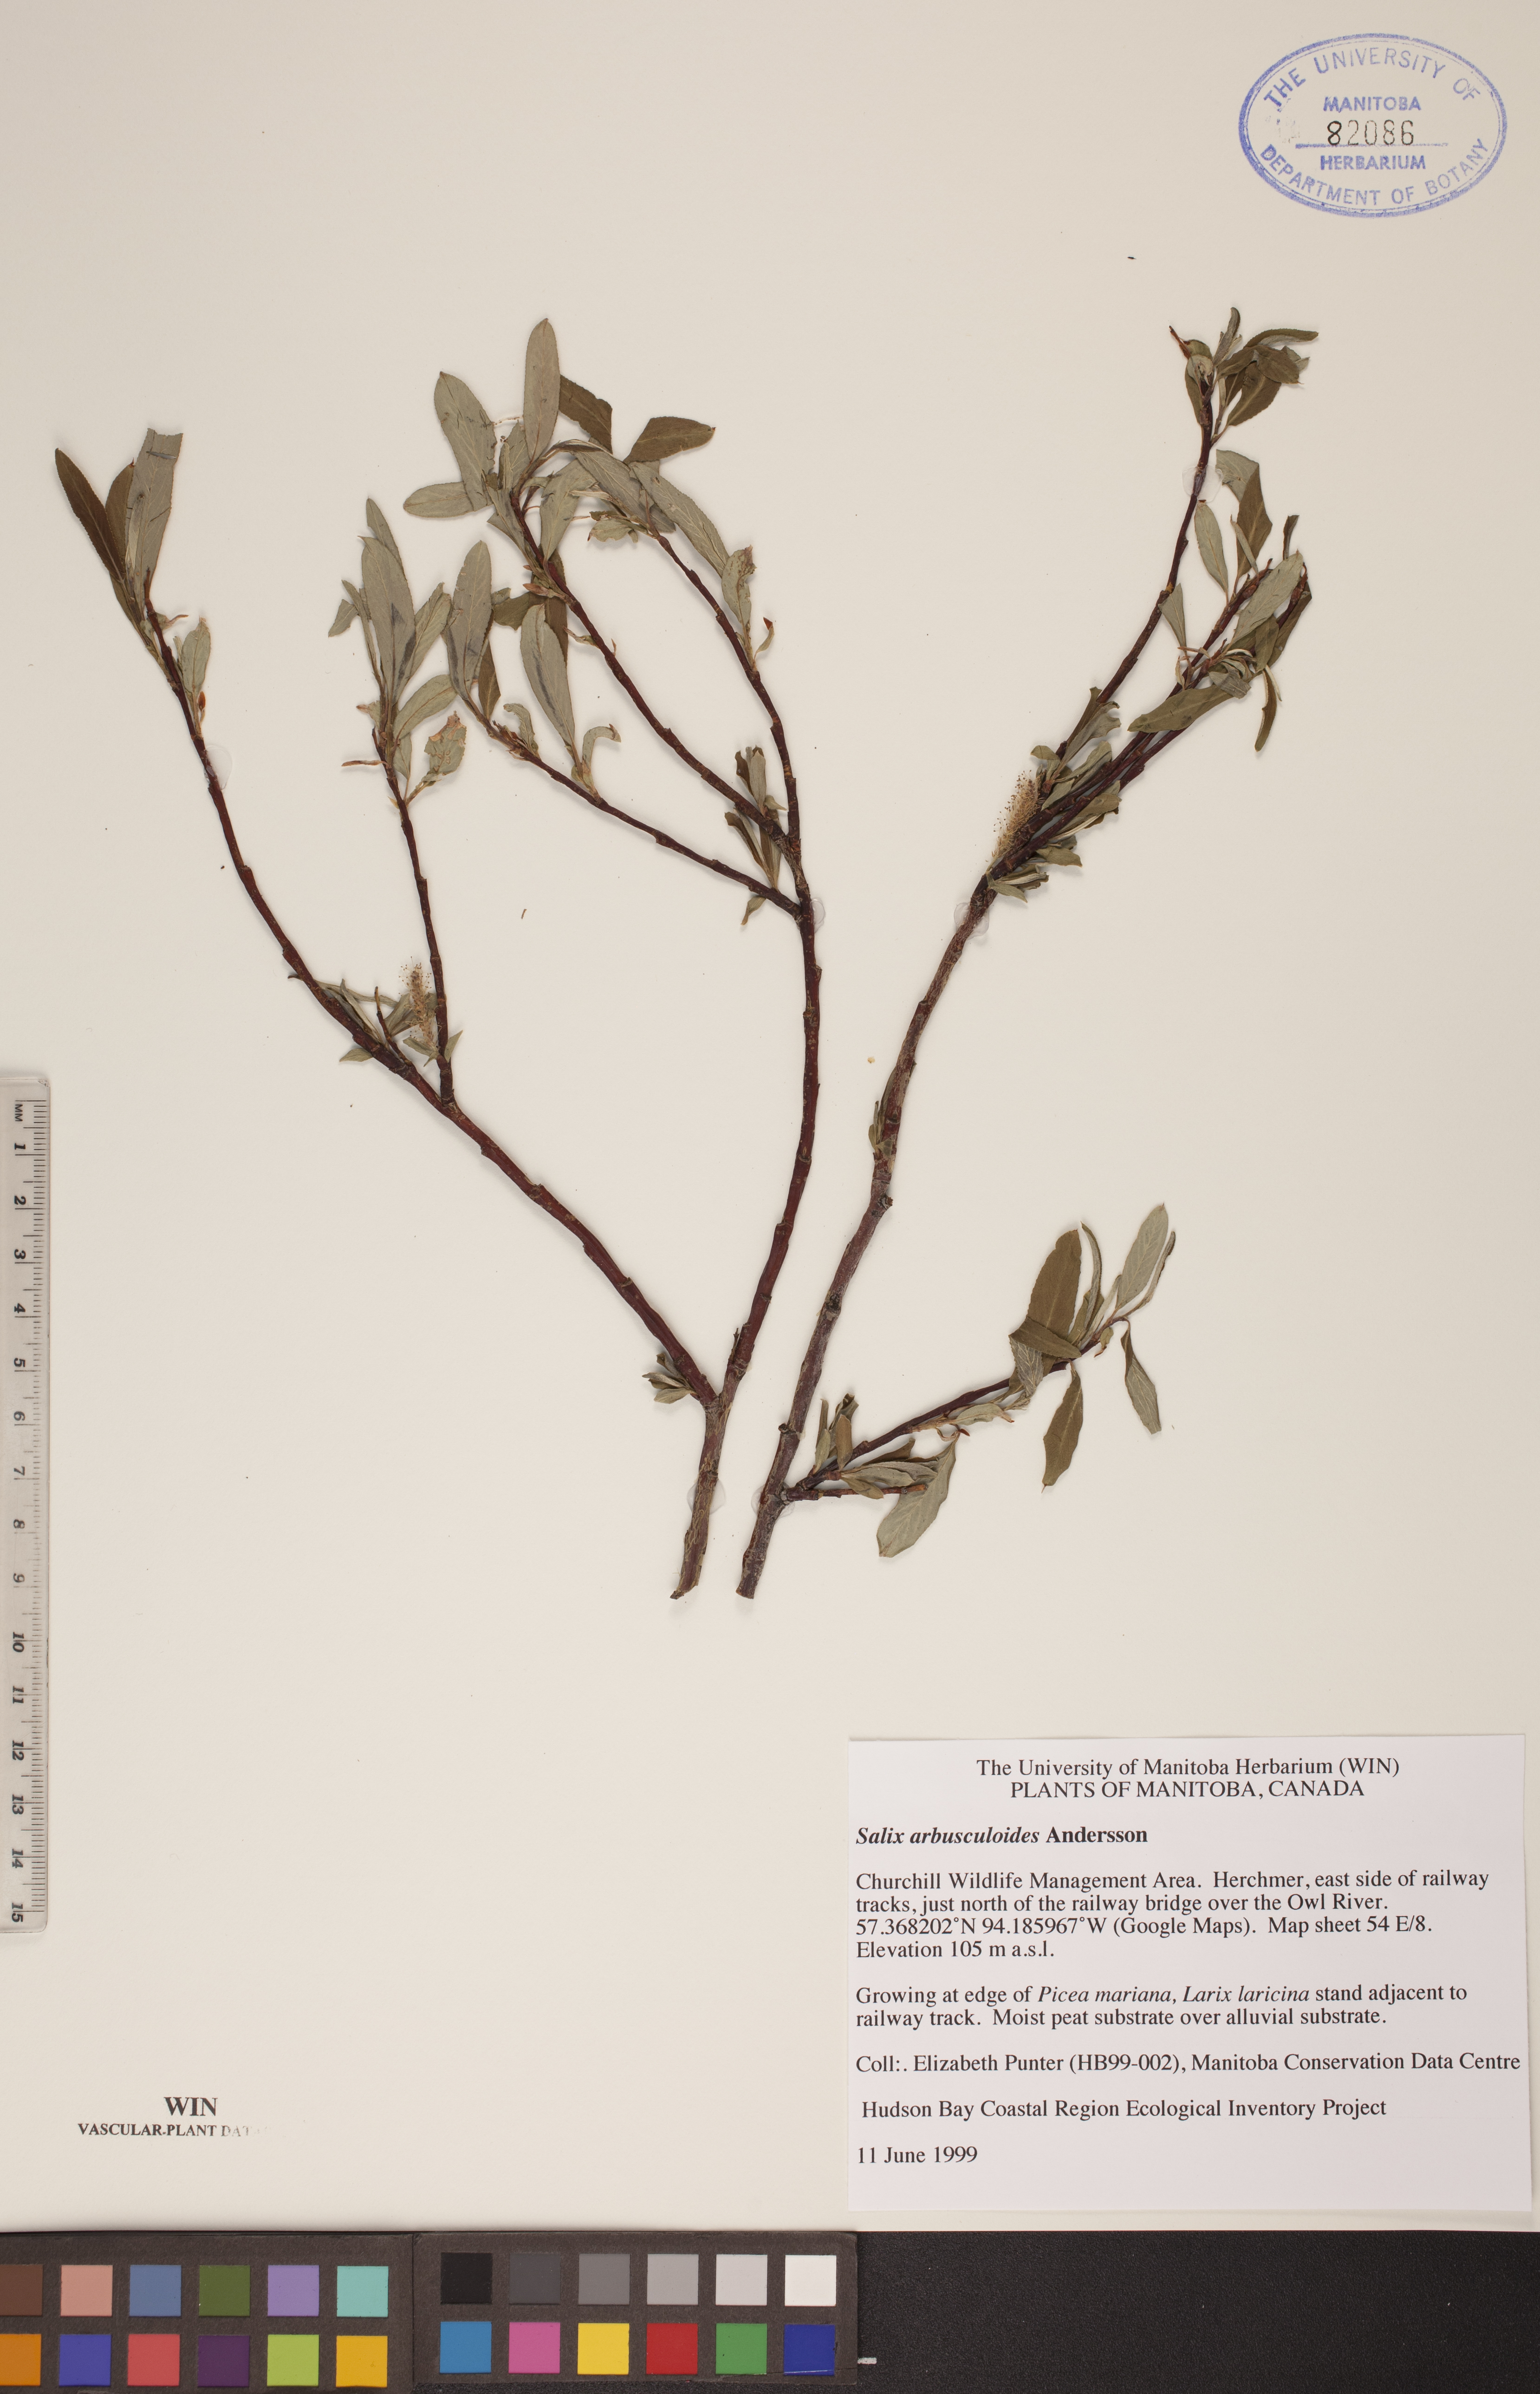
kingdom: Plantae
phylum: Tracheophyta
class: Magnoliopsida
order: Malpighiales
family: Salicaceae
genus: Salix
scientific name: Salix arbusculoides
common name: Little-tree willow
